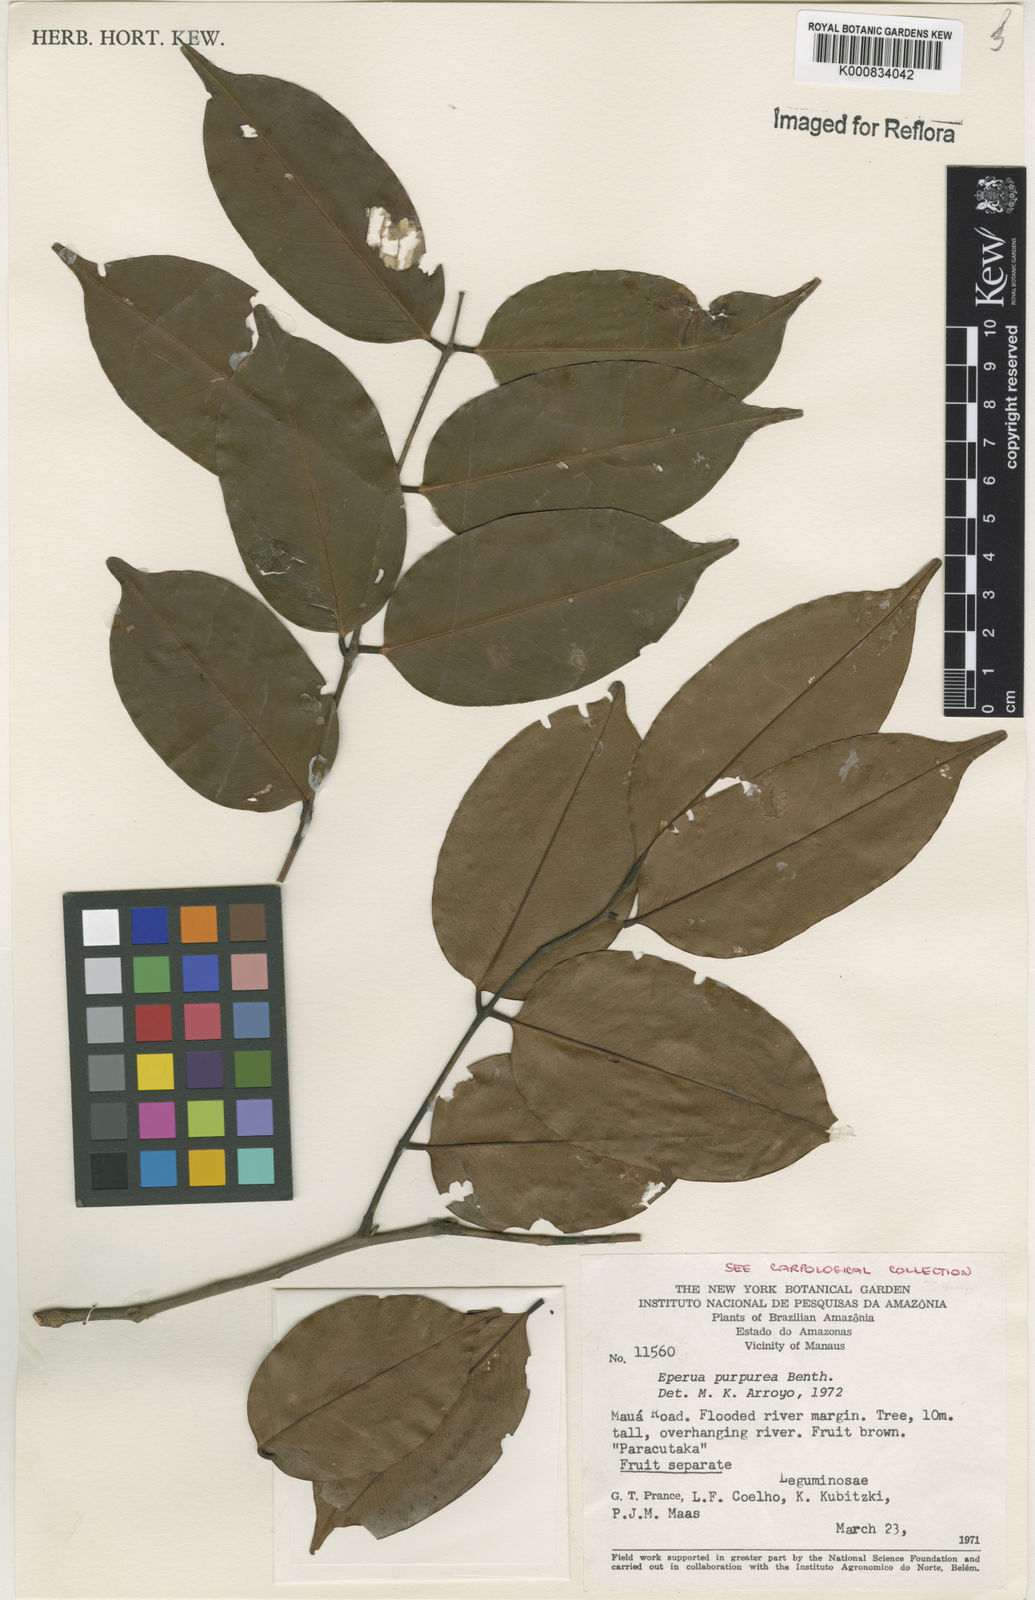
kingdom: Plantae
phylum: Tracheophyta
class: Magnoliopsida
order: Fabales
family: Fabaceae
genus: Swartzia
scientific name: Swartzia
